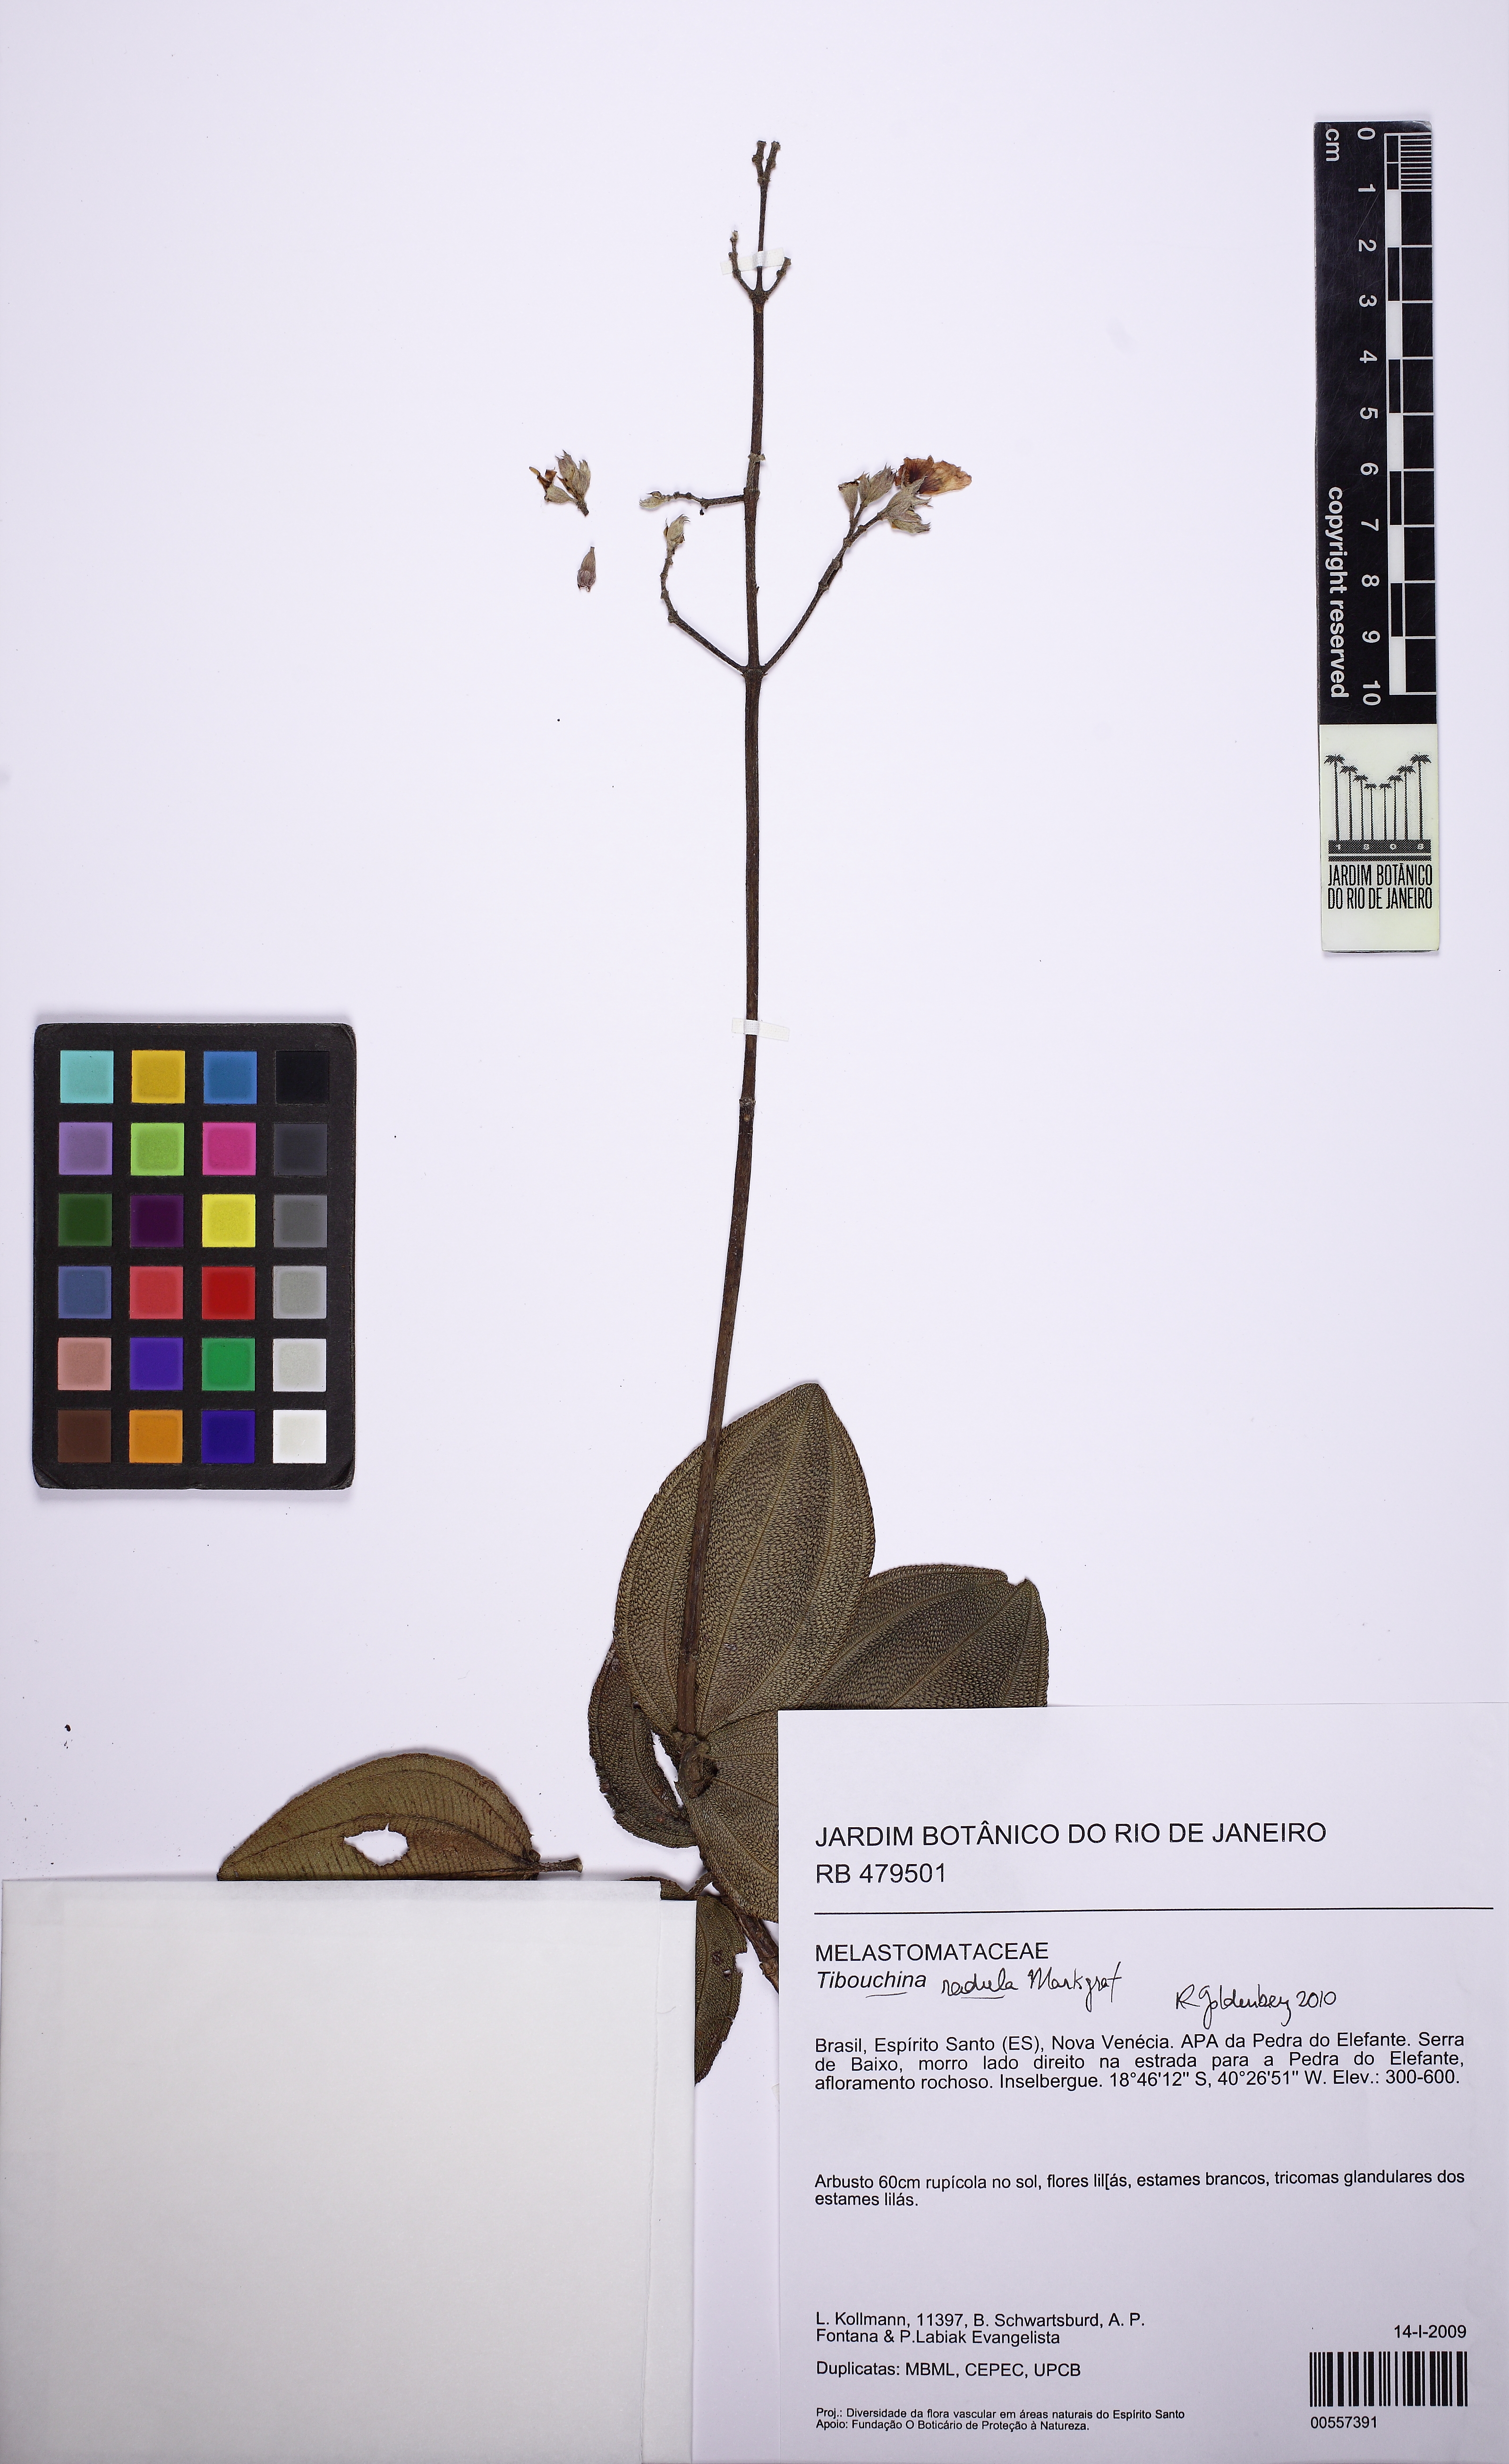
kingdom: Plantae
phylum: Tracheophyta
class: Magnoliopsida
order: Myrtales
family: Melastomataceae
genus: Pleroma
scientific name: Pleroma venetiense
